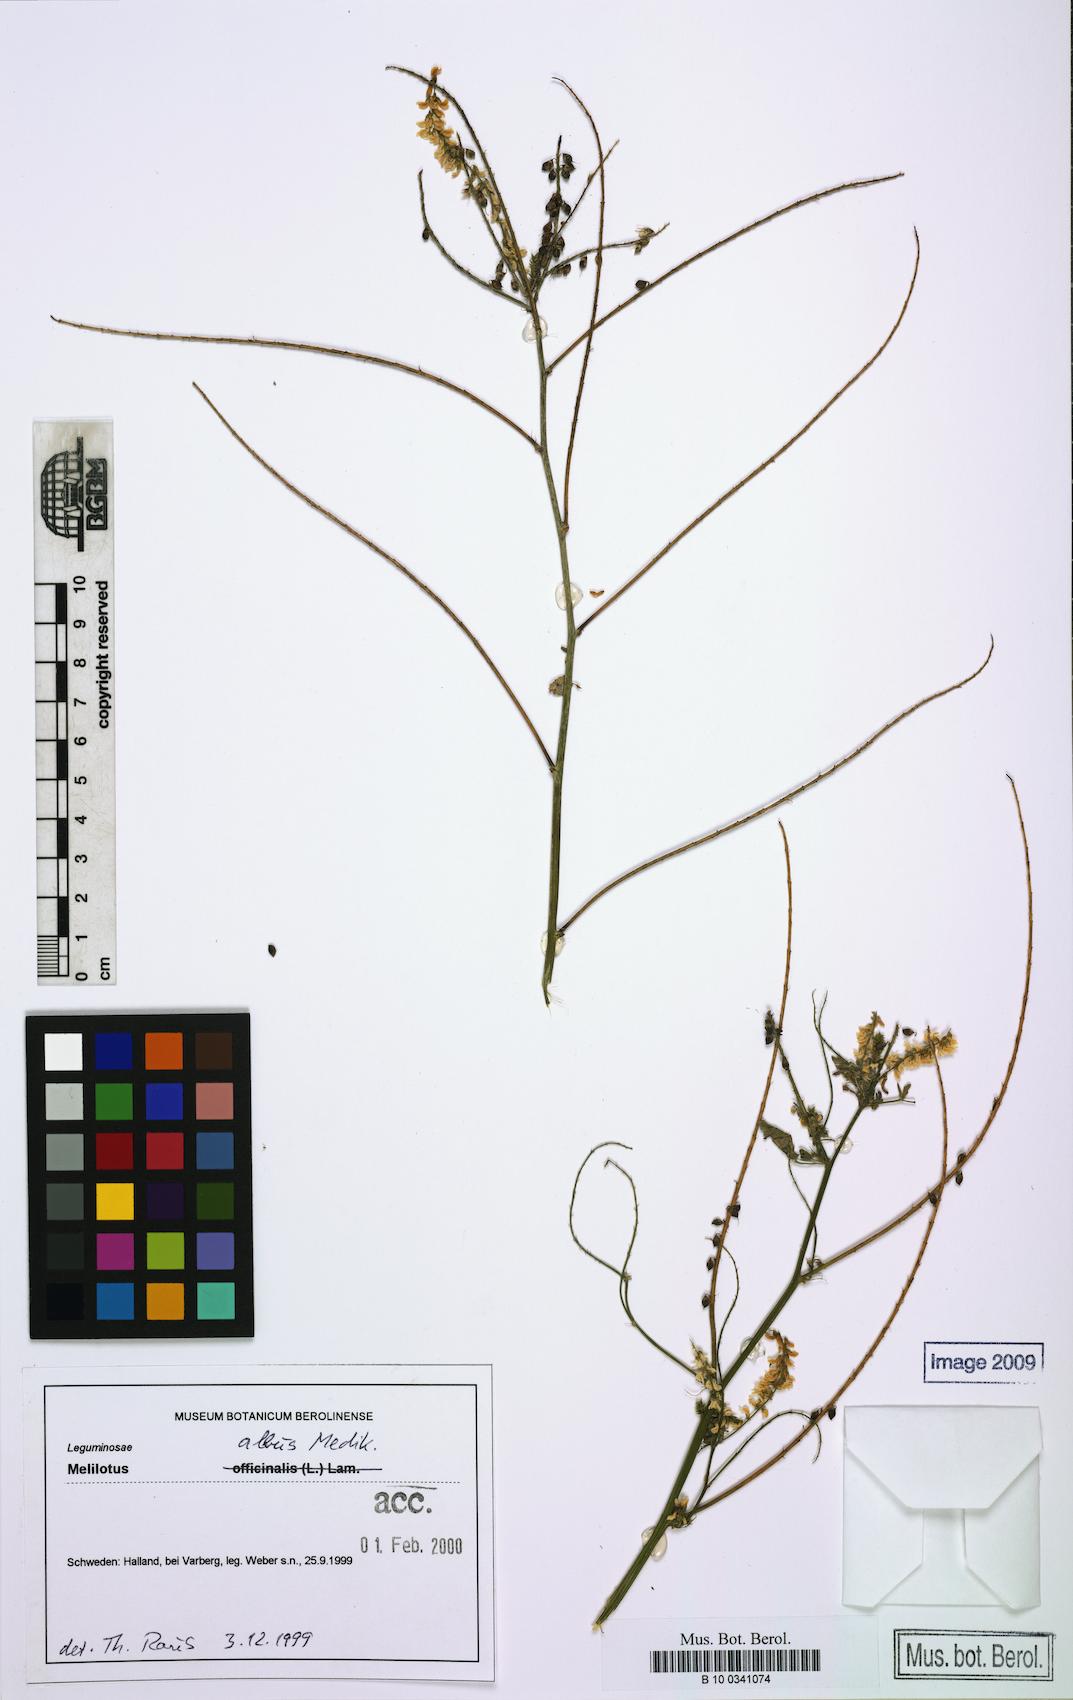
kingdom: Plantae
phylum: Tracheophyta
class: Magnoliopsida
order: Fabales
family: Fabaceae
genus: Melilotus
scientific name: Melilotus albus
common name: White melilot
